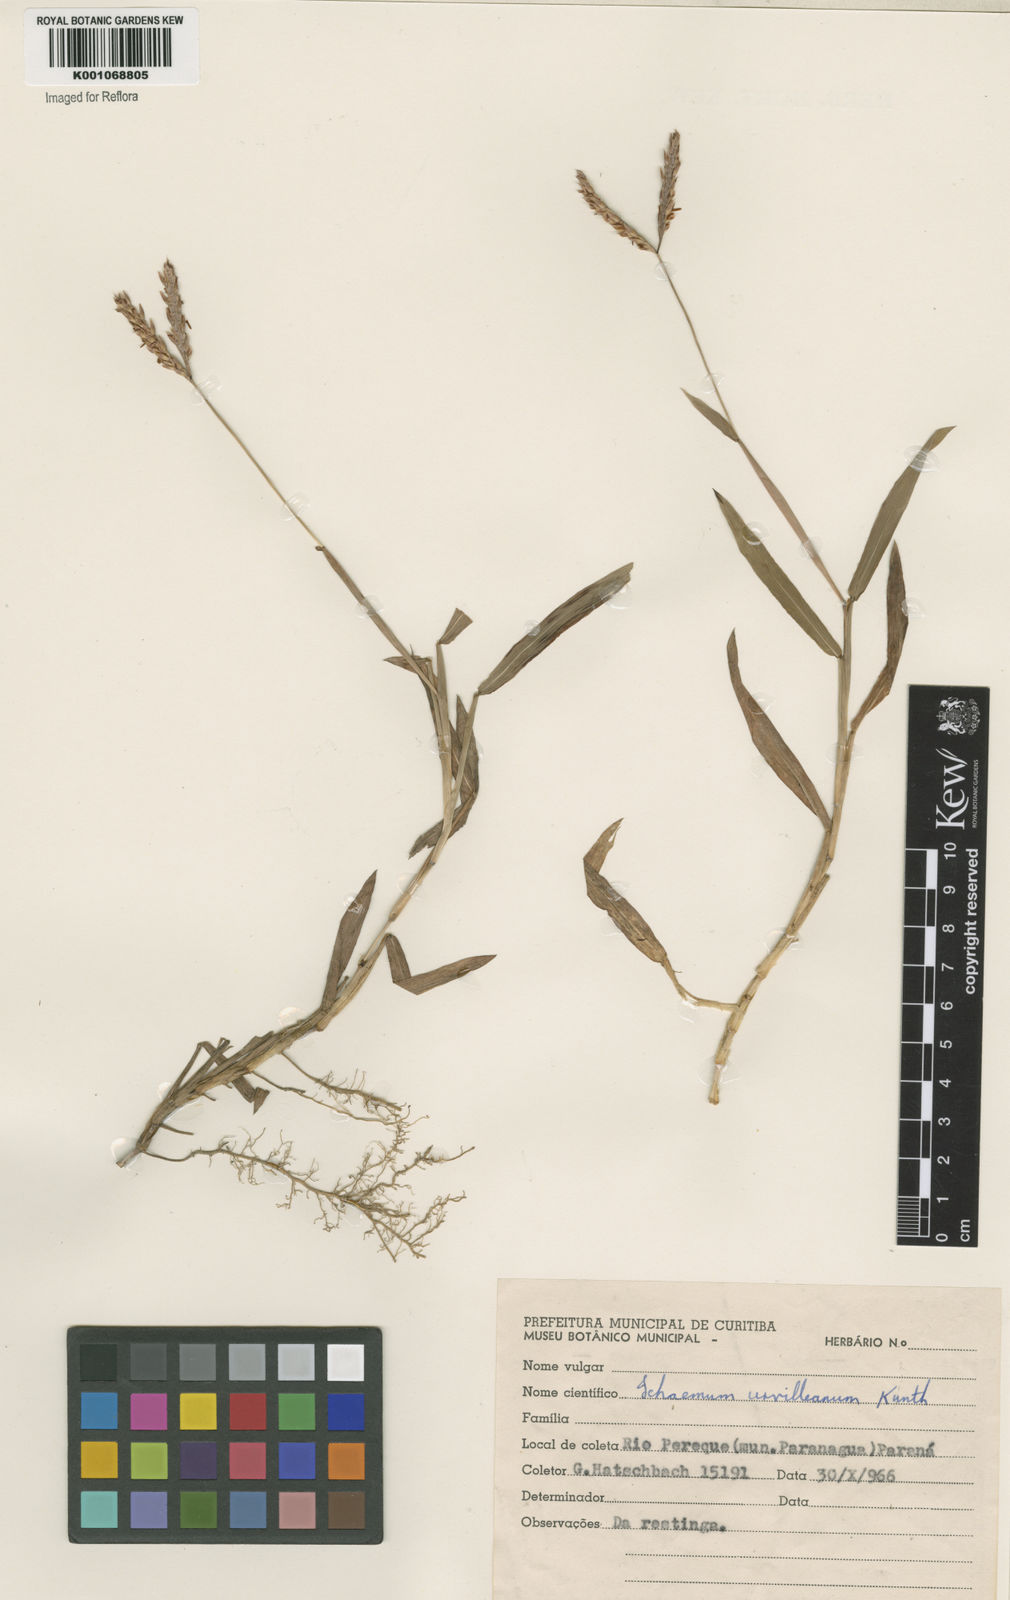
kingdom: Plantae
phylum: Tracheophyta
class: Liliopsida
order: Poales
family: Poaceae
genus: Ischaemum
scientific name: Ischaemum minus
